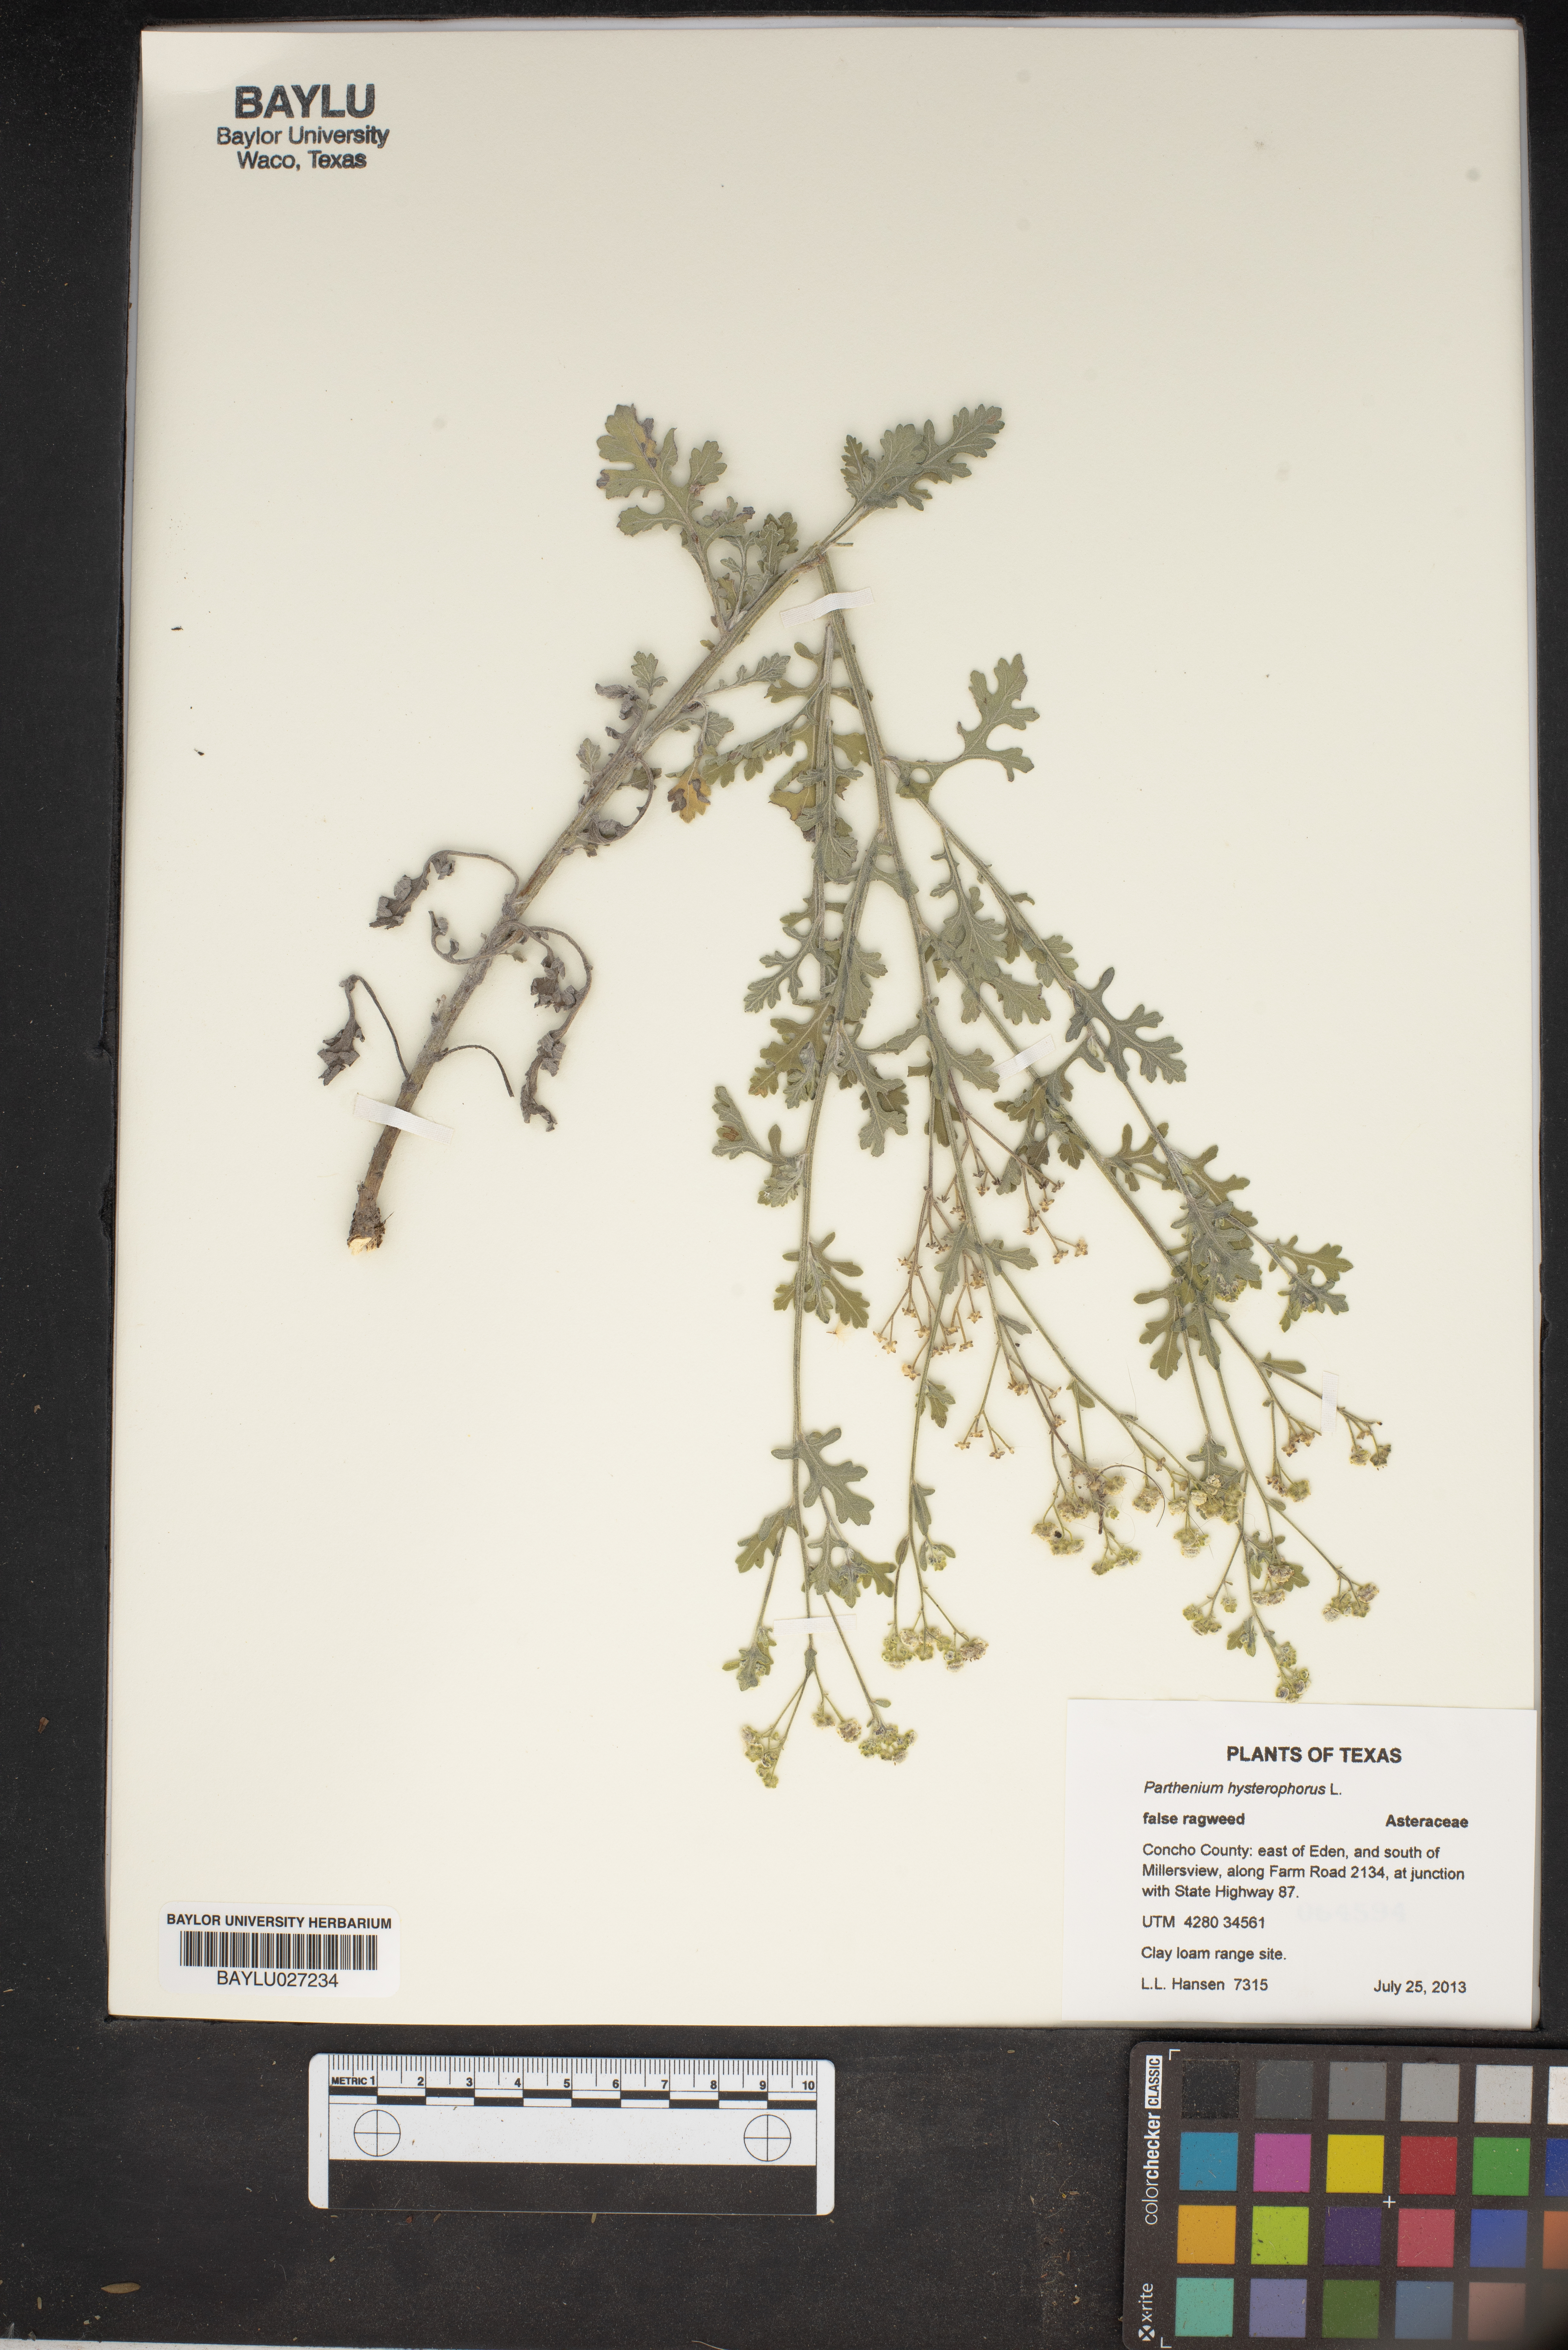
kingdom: Plantae
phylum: Tracheophyta
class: Magnoliopsida
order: Asterales
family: Asteraceae
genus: Parthenium
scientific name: Parthenium hysterophorus
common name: Santa maria feverfew
